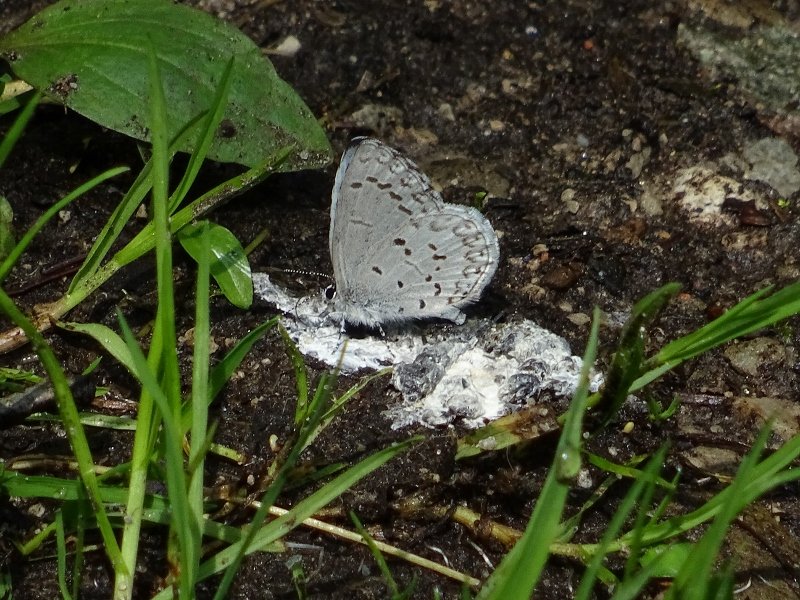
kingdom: Animalia
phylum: Arthropoda
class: Insecta
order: Lepidoptera
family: Lycaenidae
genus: Celastrina
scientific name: Celastrina
